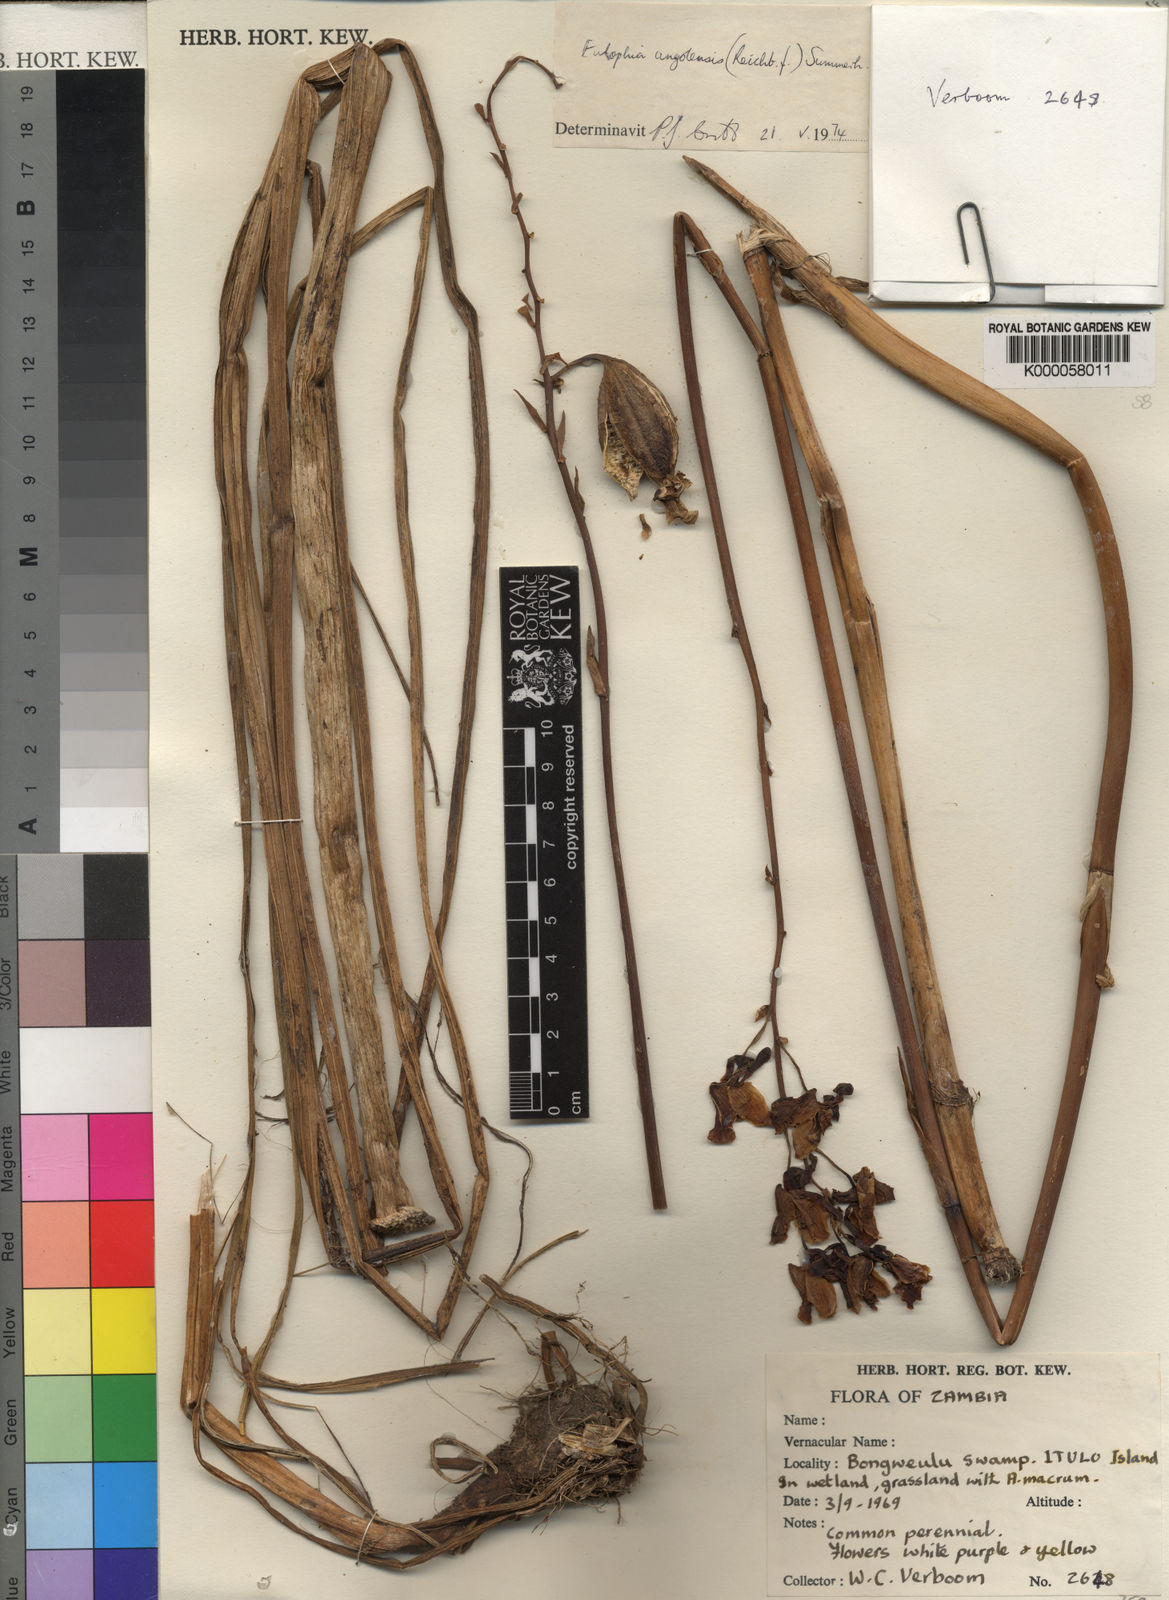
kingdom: Plantae
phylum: Tracheophyta
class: Liliopsida
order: Asparagales
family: Orchidaceae
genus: Eulophia
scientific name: Eulophia angolensis
